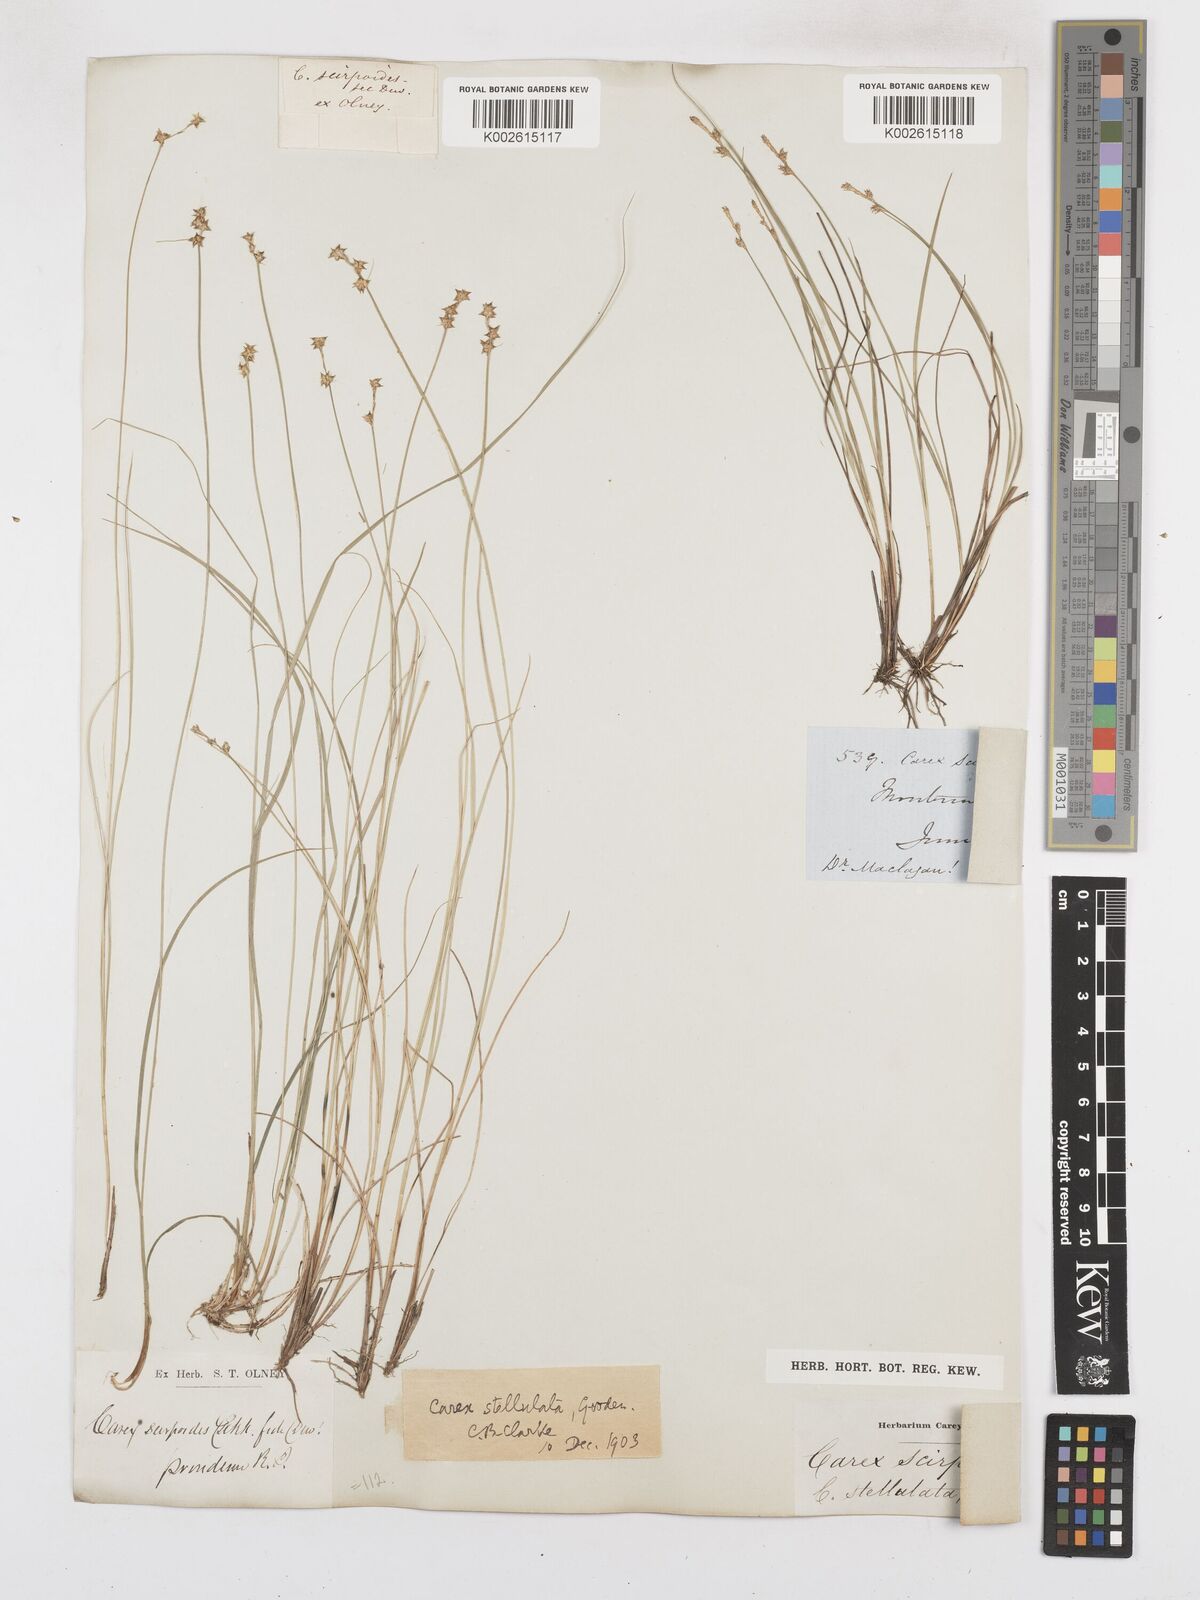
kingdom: Plantae
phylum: Tracheophyta
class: Liliopsida
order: Poales
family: Cyperaceae
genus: Carex
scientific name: Carex echinata
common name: Star sedge
